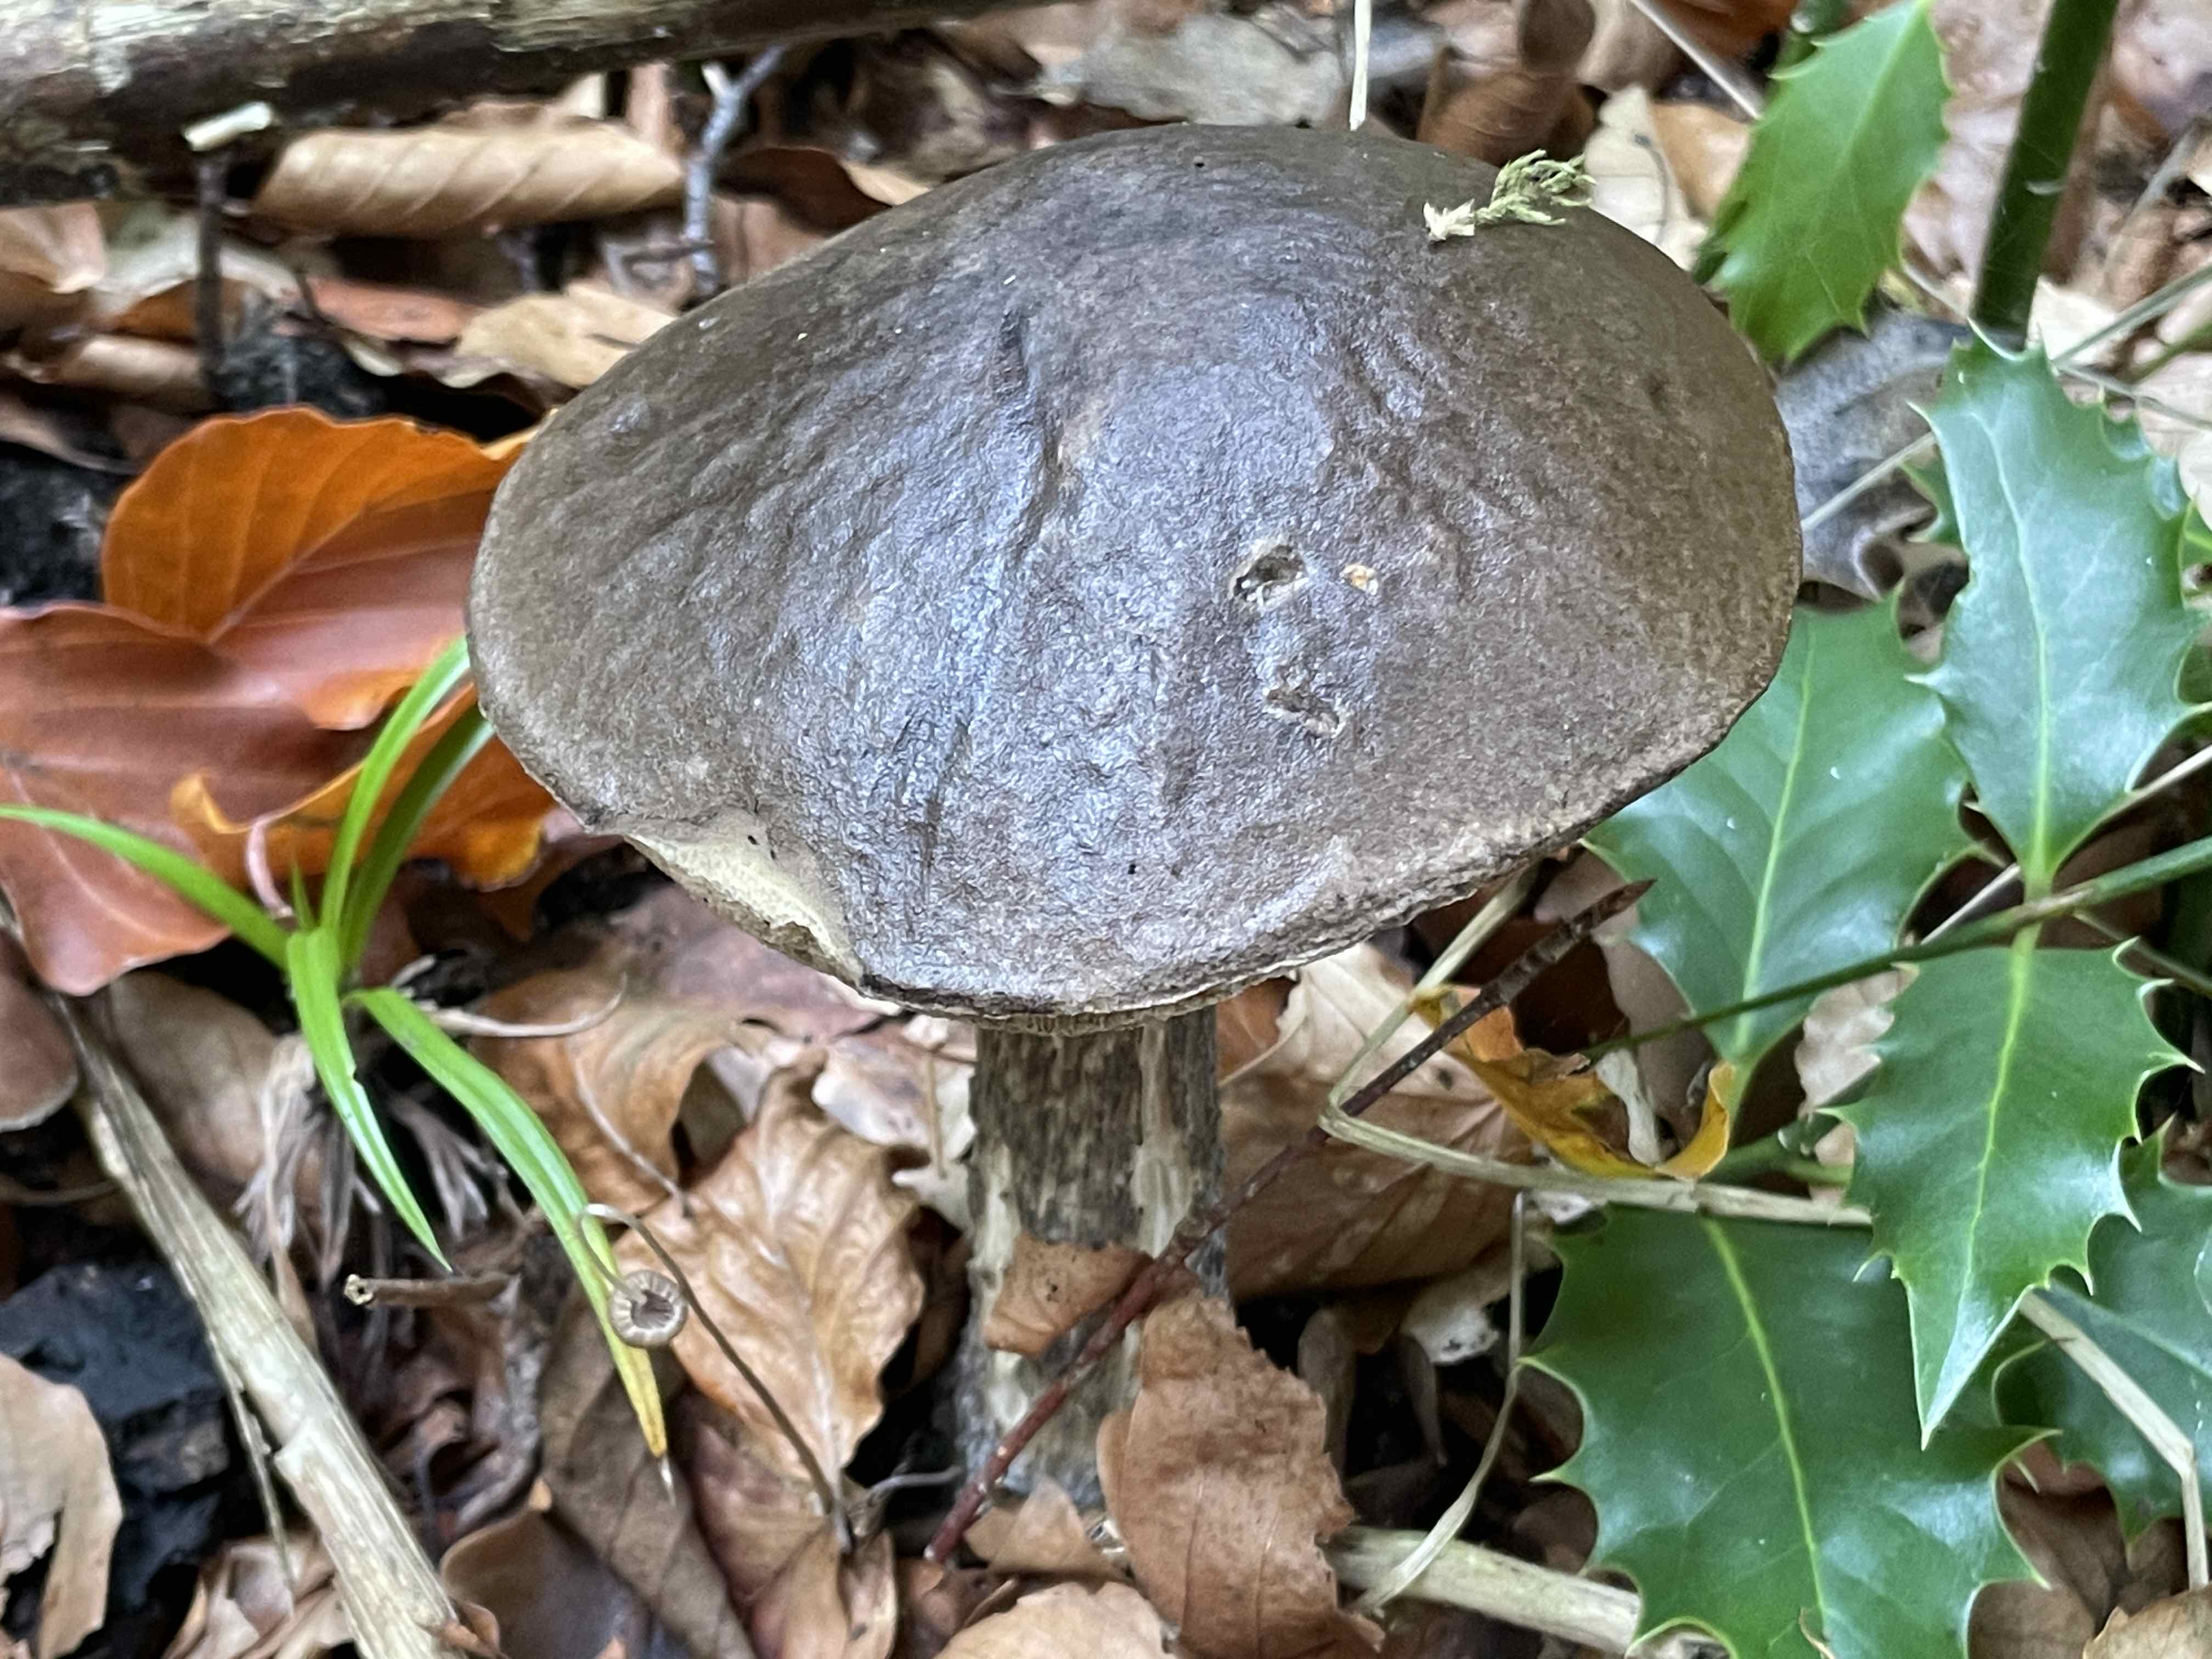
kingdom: Fungi
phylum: Basidiomycota
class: Agaricomycetes
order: Boletales
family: Boletaceae
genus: Leccinum
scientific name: Leccinum scabrum
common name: brun skælrørhat
